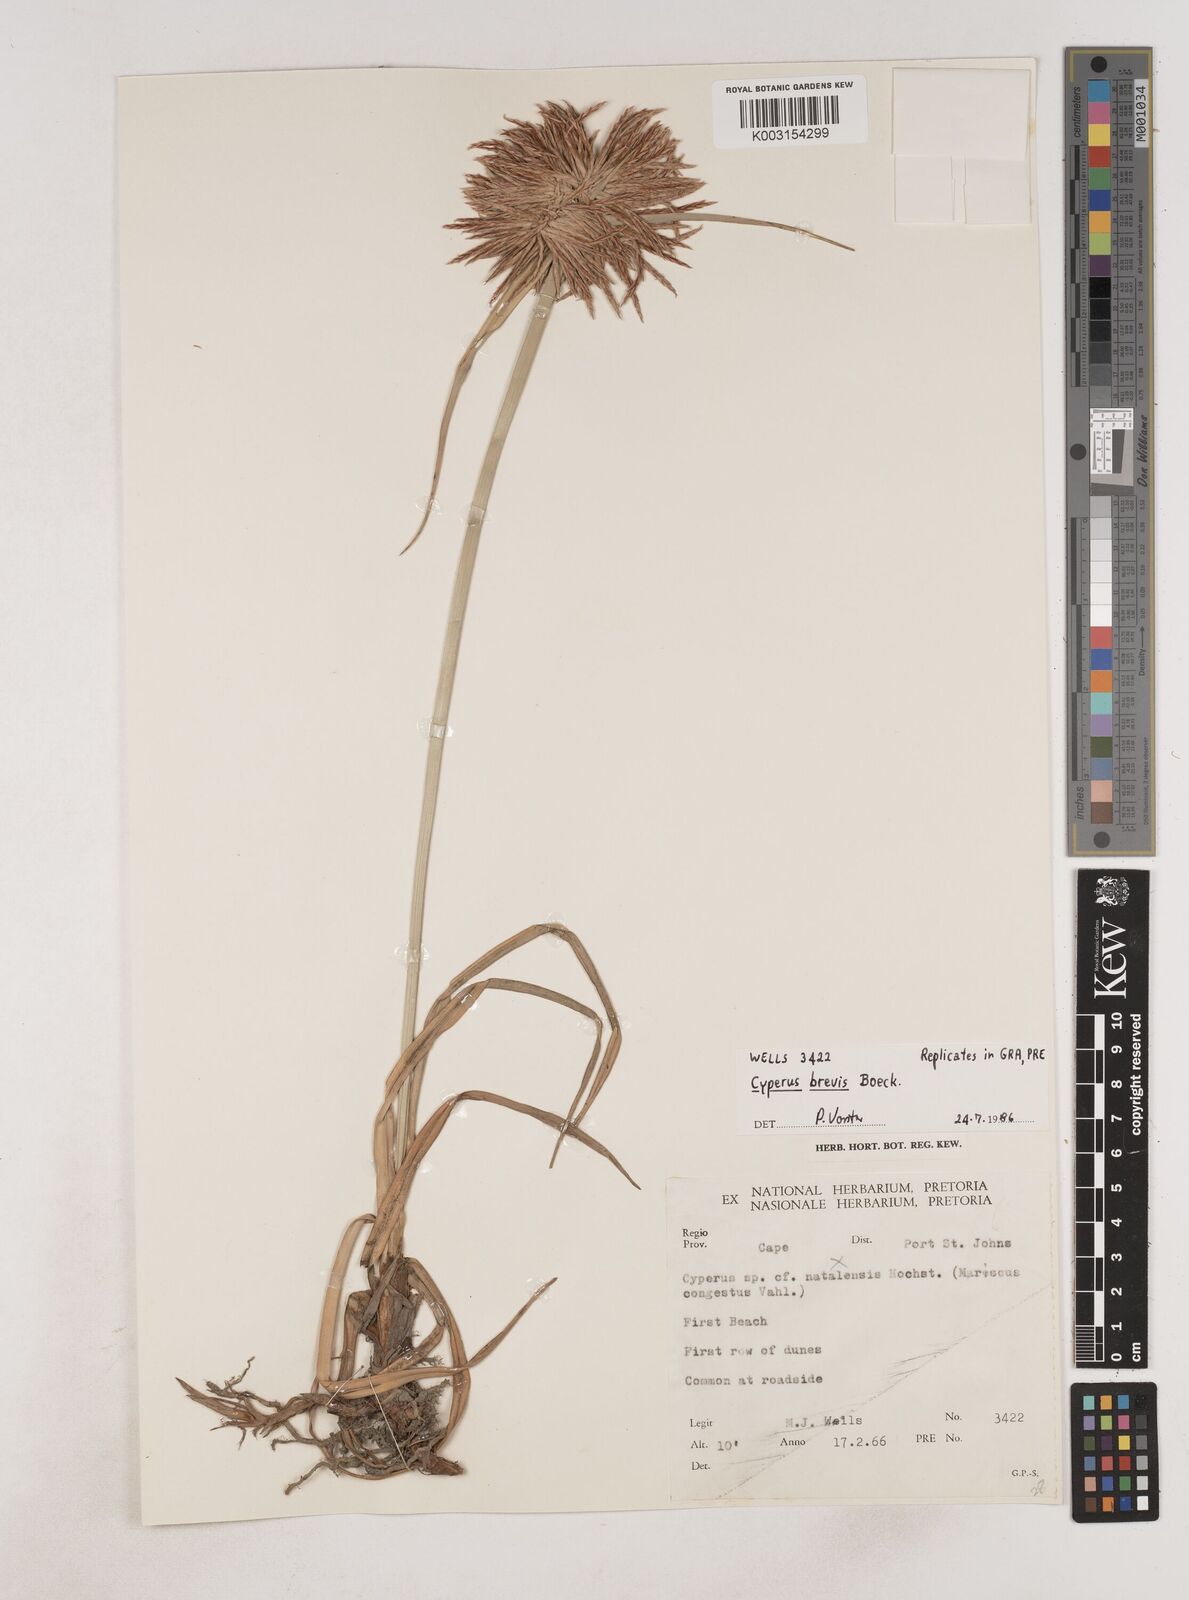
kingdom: Plantae
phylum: Tracheophyta
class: Liliopsida
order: Poales
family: Cyperaceae
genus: Cyperus
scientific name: Cyperus congestus
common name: Dense flat sedge
